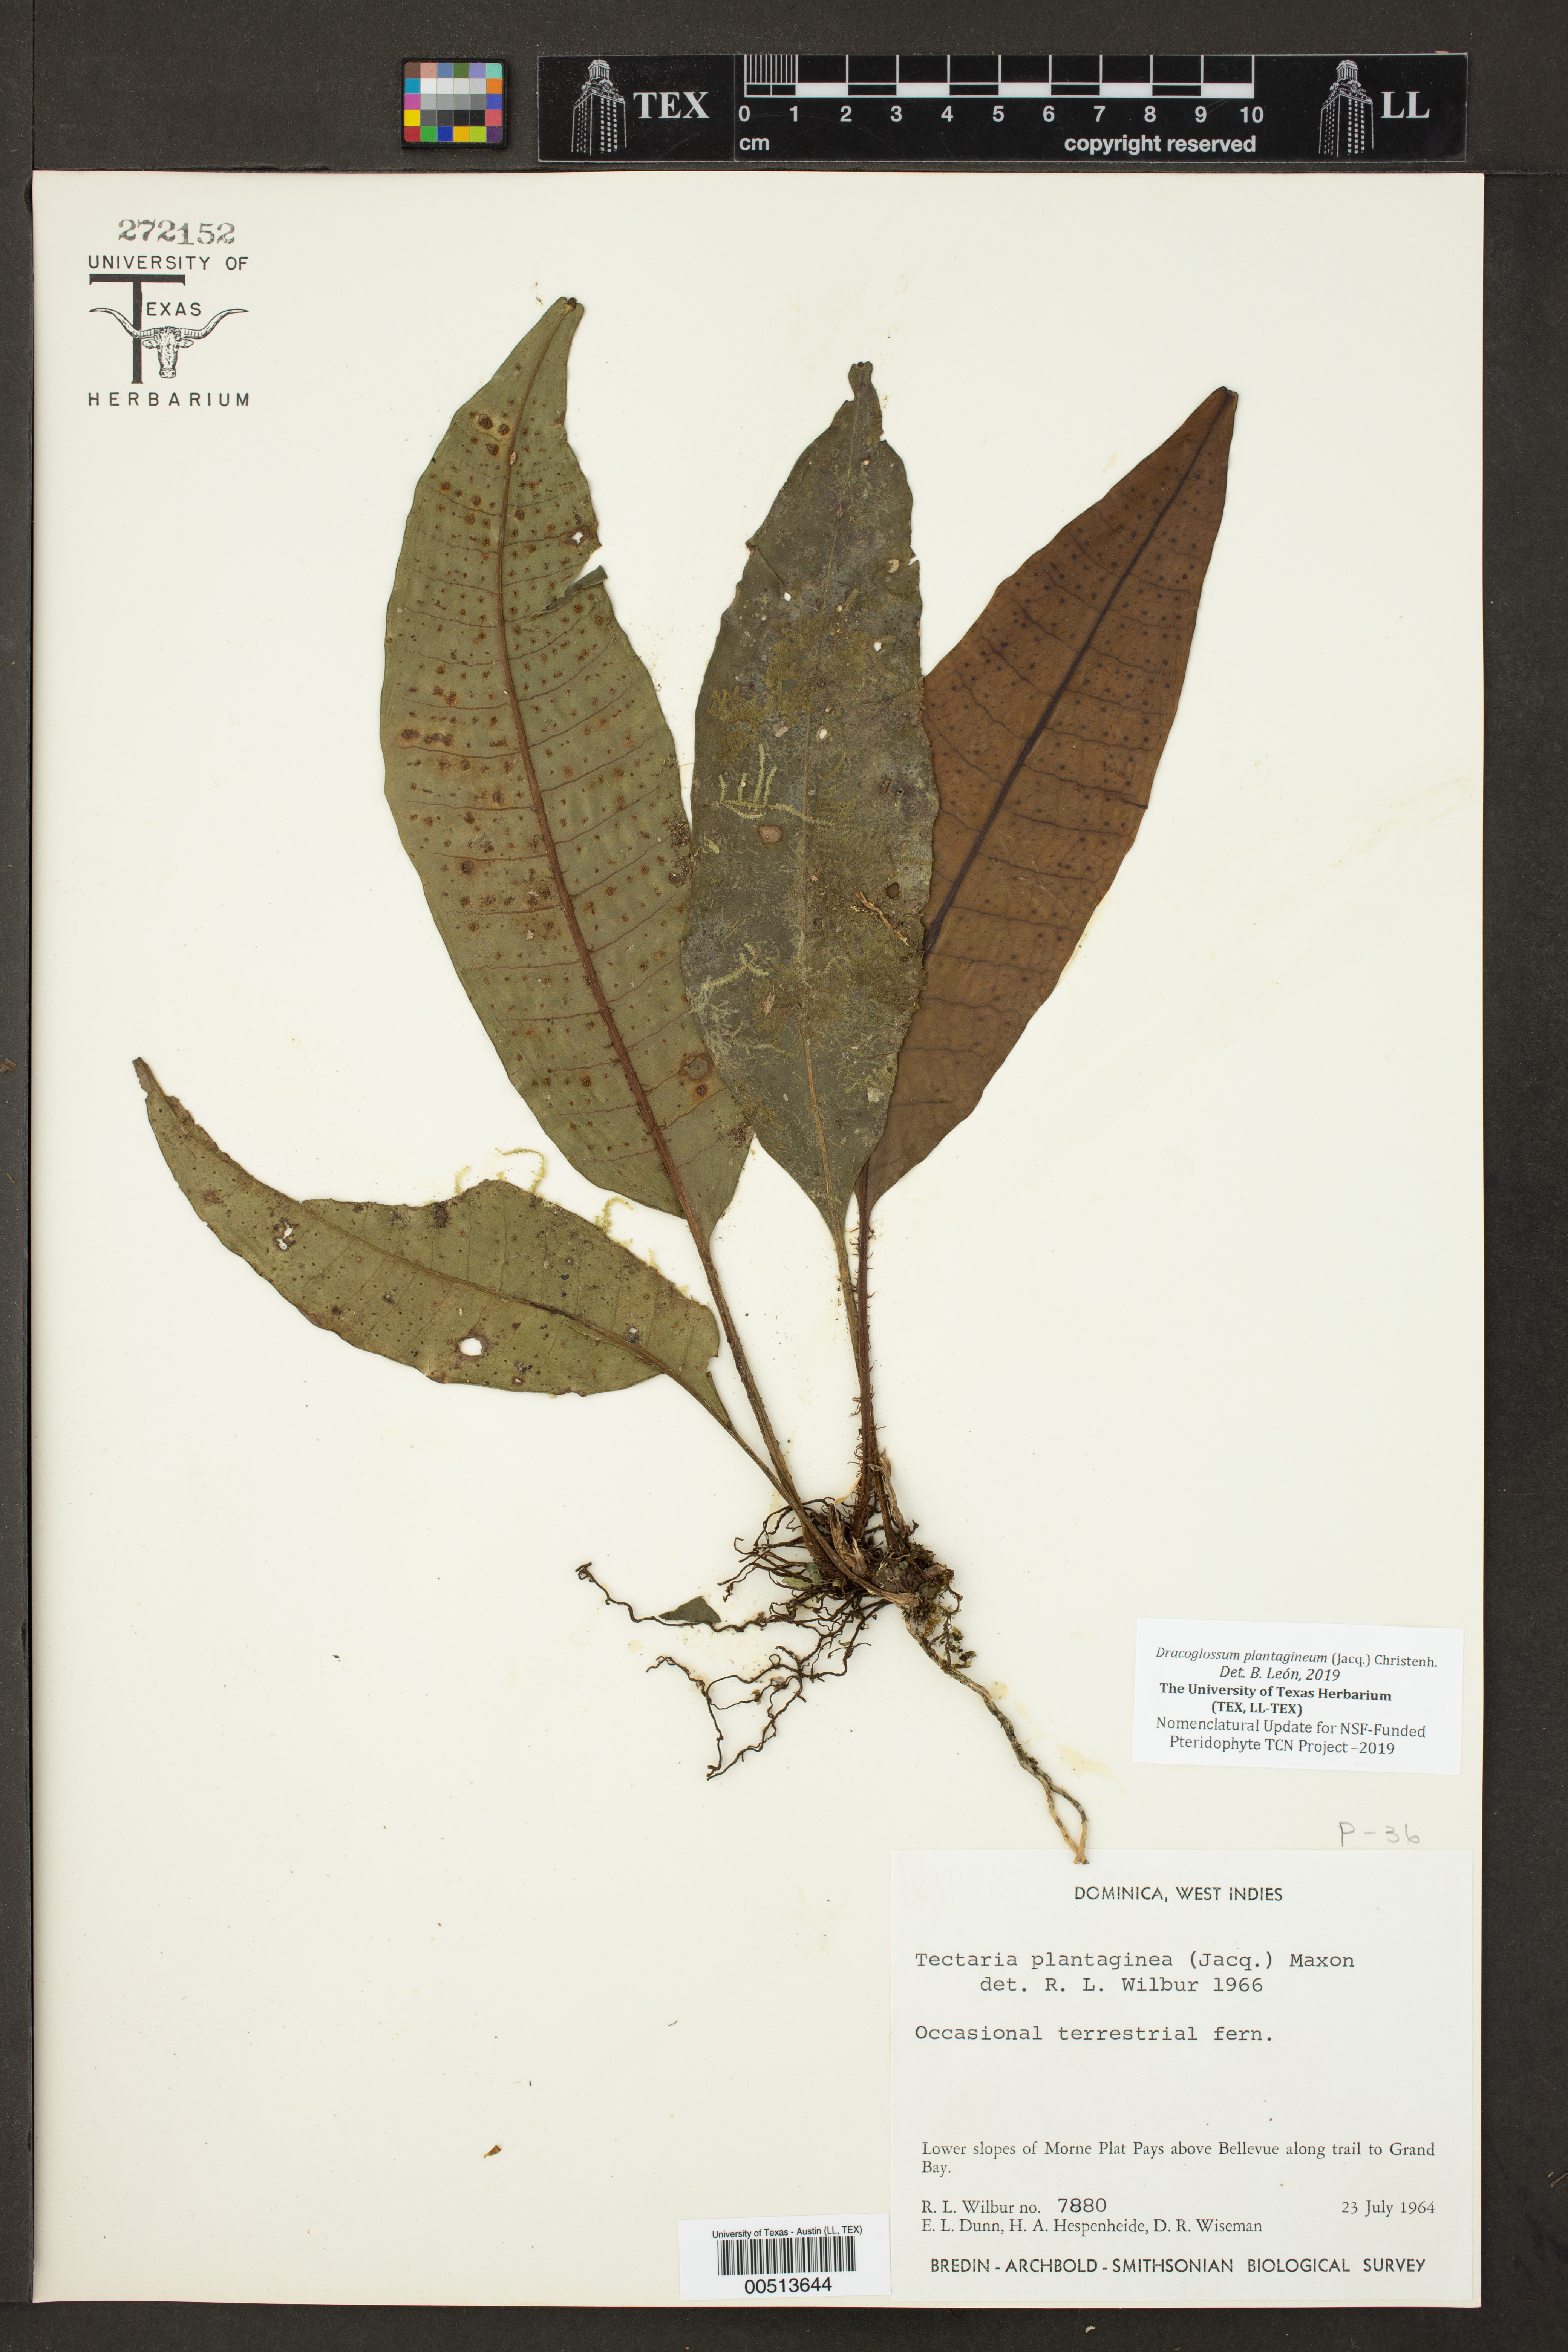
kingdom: Plantae
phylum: Tracheophyta
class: Polypodiopsida
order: Polypodiales
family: Lomariopsidaceae
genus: Dracoglossum
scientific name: Dracoglossum plantagineum
